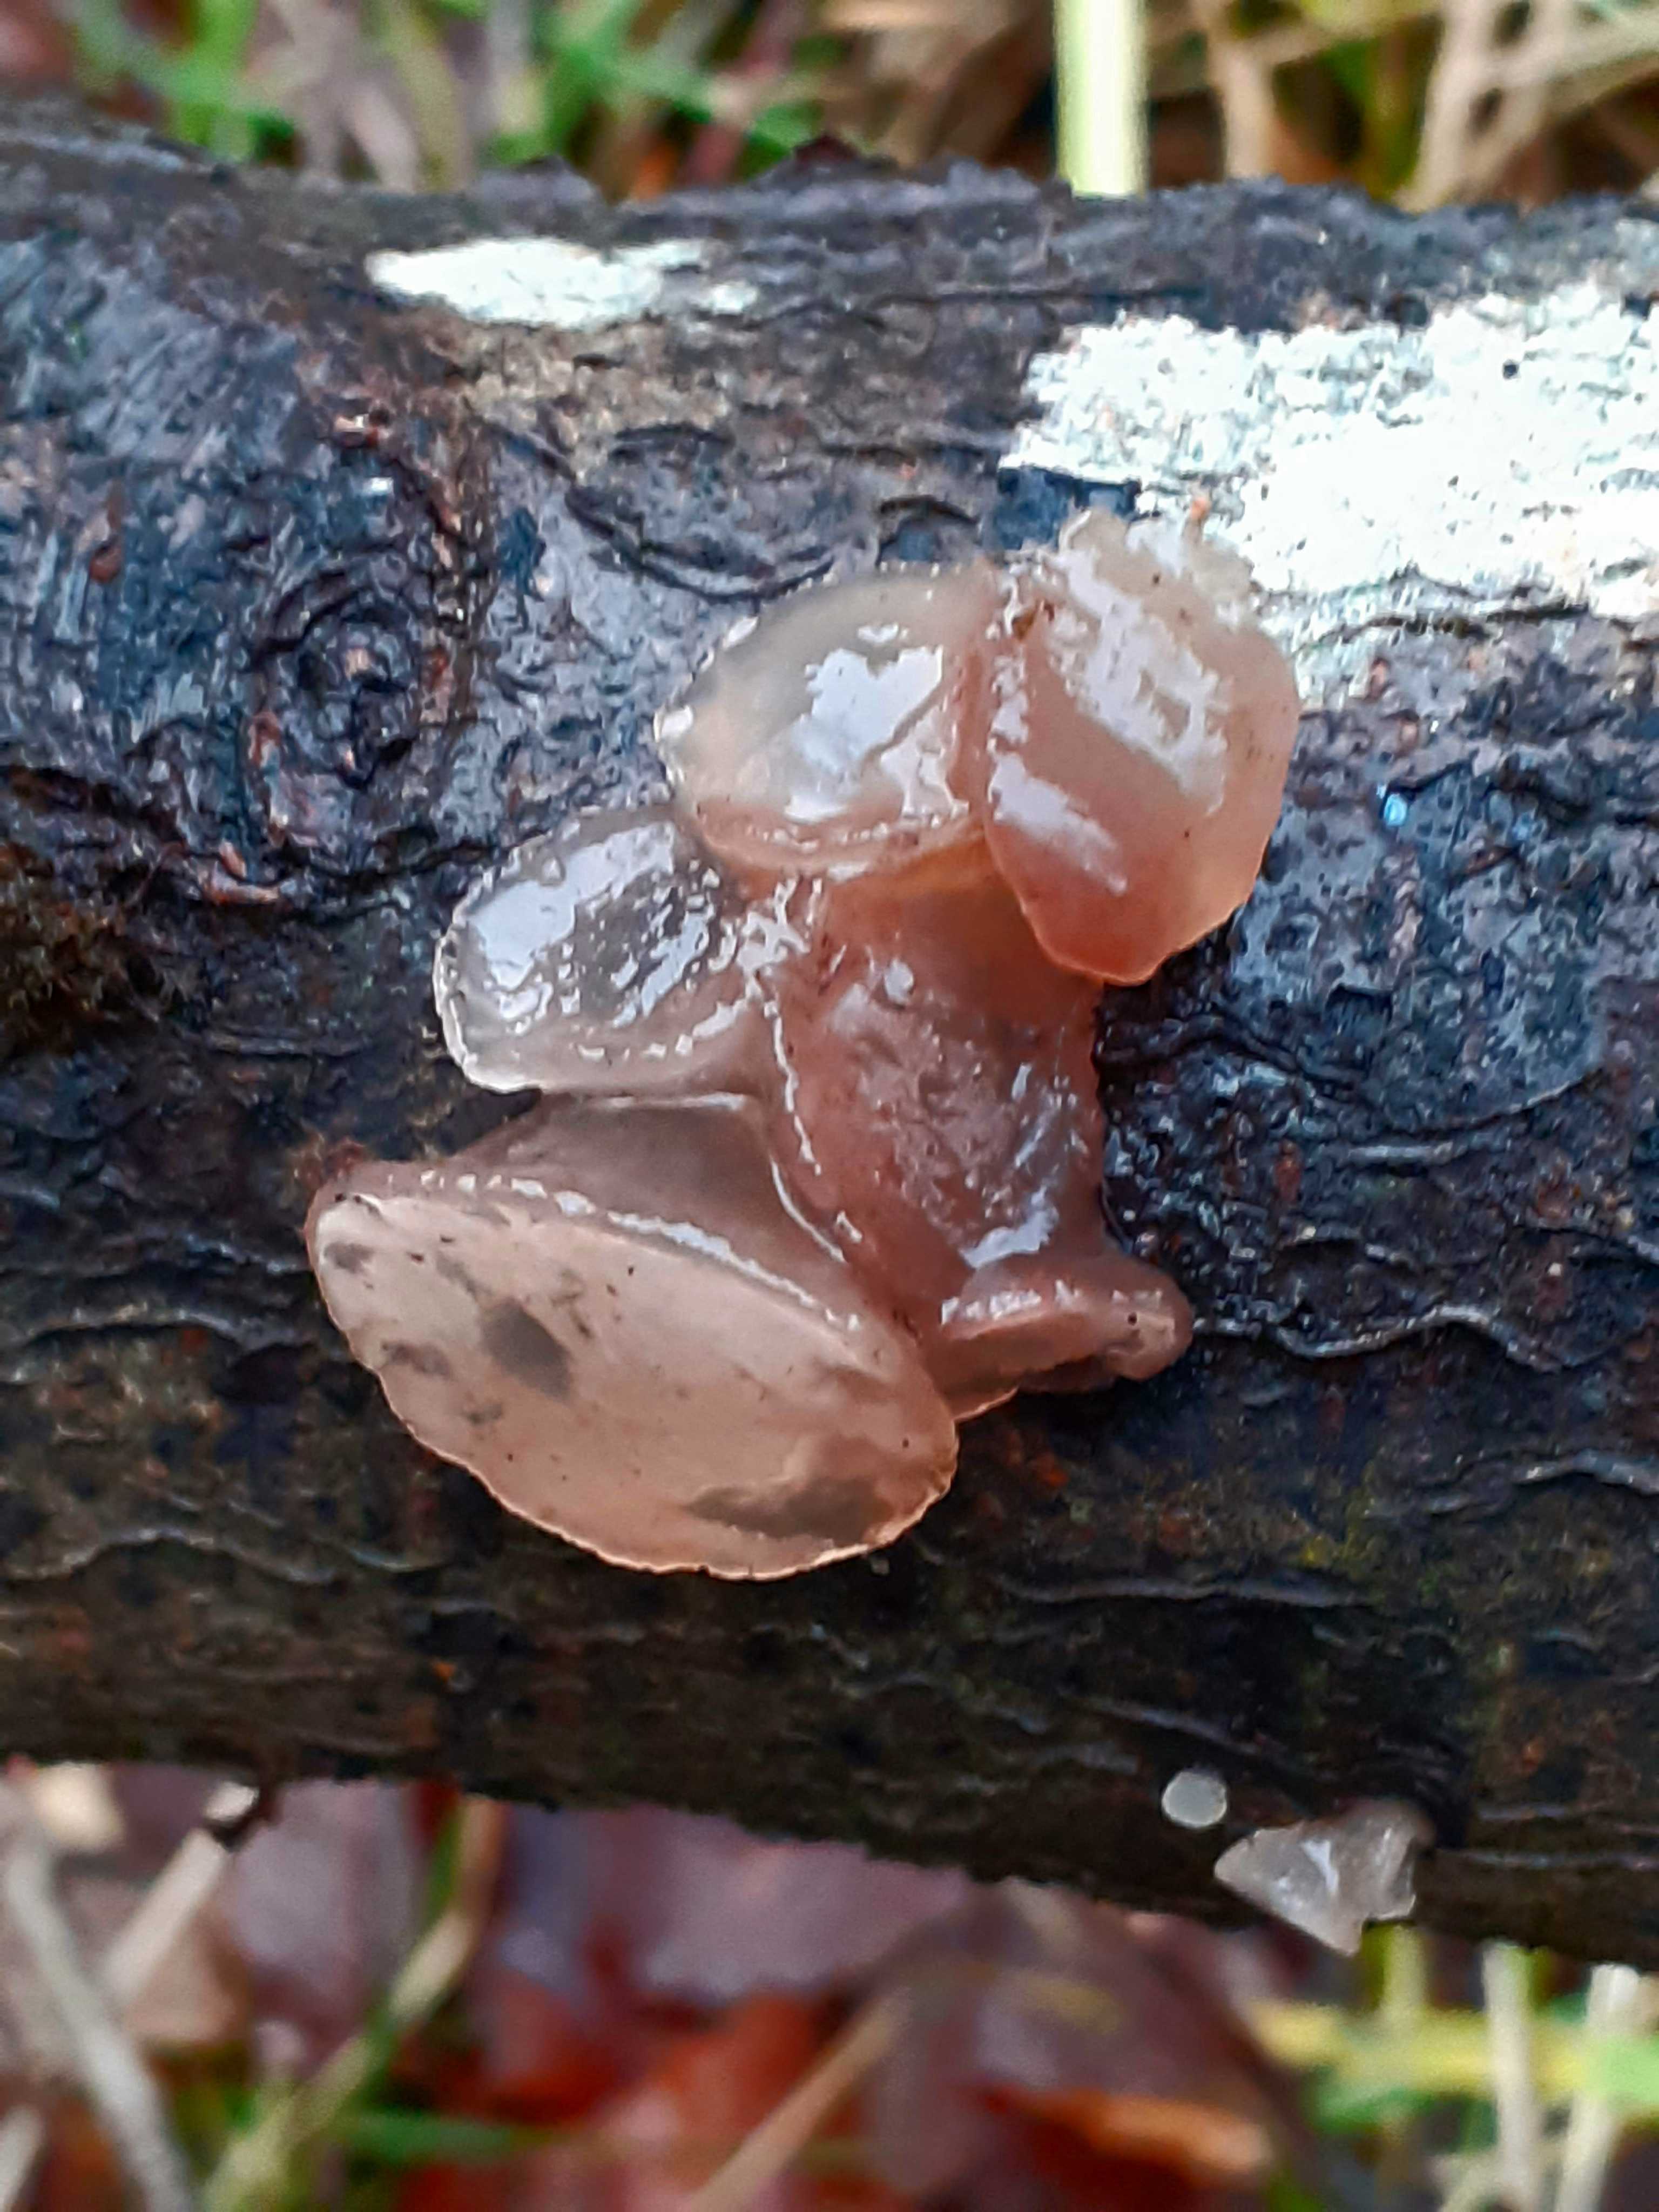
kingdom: Fungi
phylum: Ascomycota
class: Leotiomycetes
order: Helotiales
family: Gelatinodiscaceae
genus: Neobulgaria
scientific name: Neobulgaria pura
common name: bleg bævreskive
